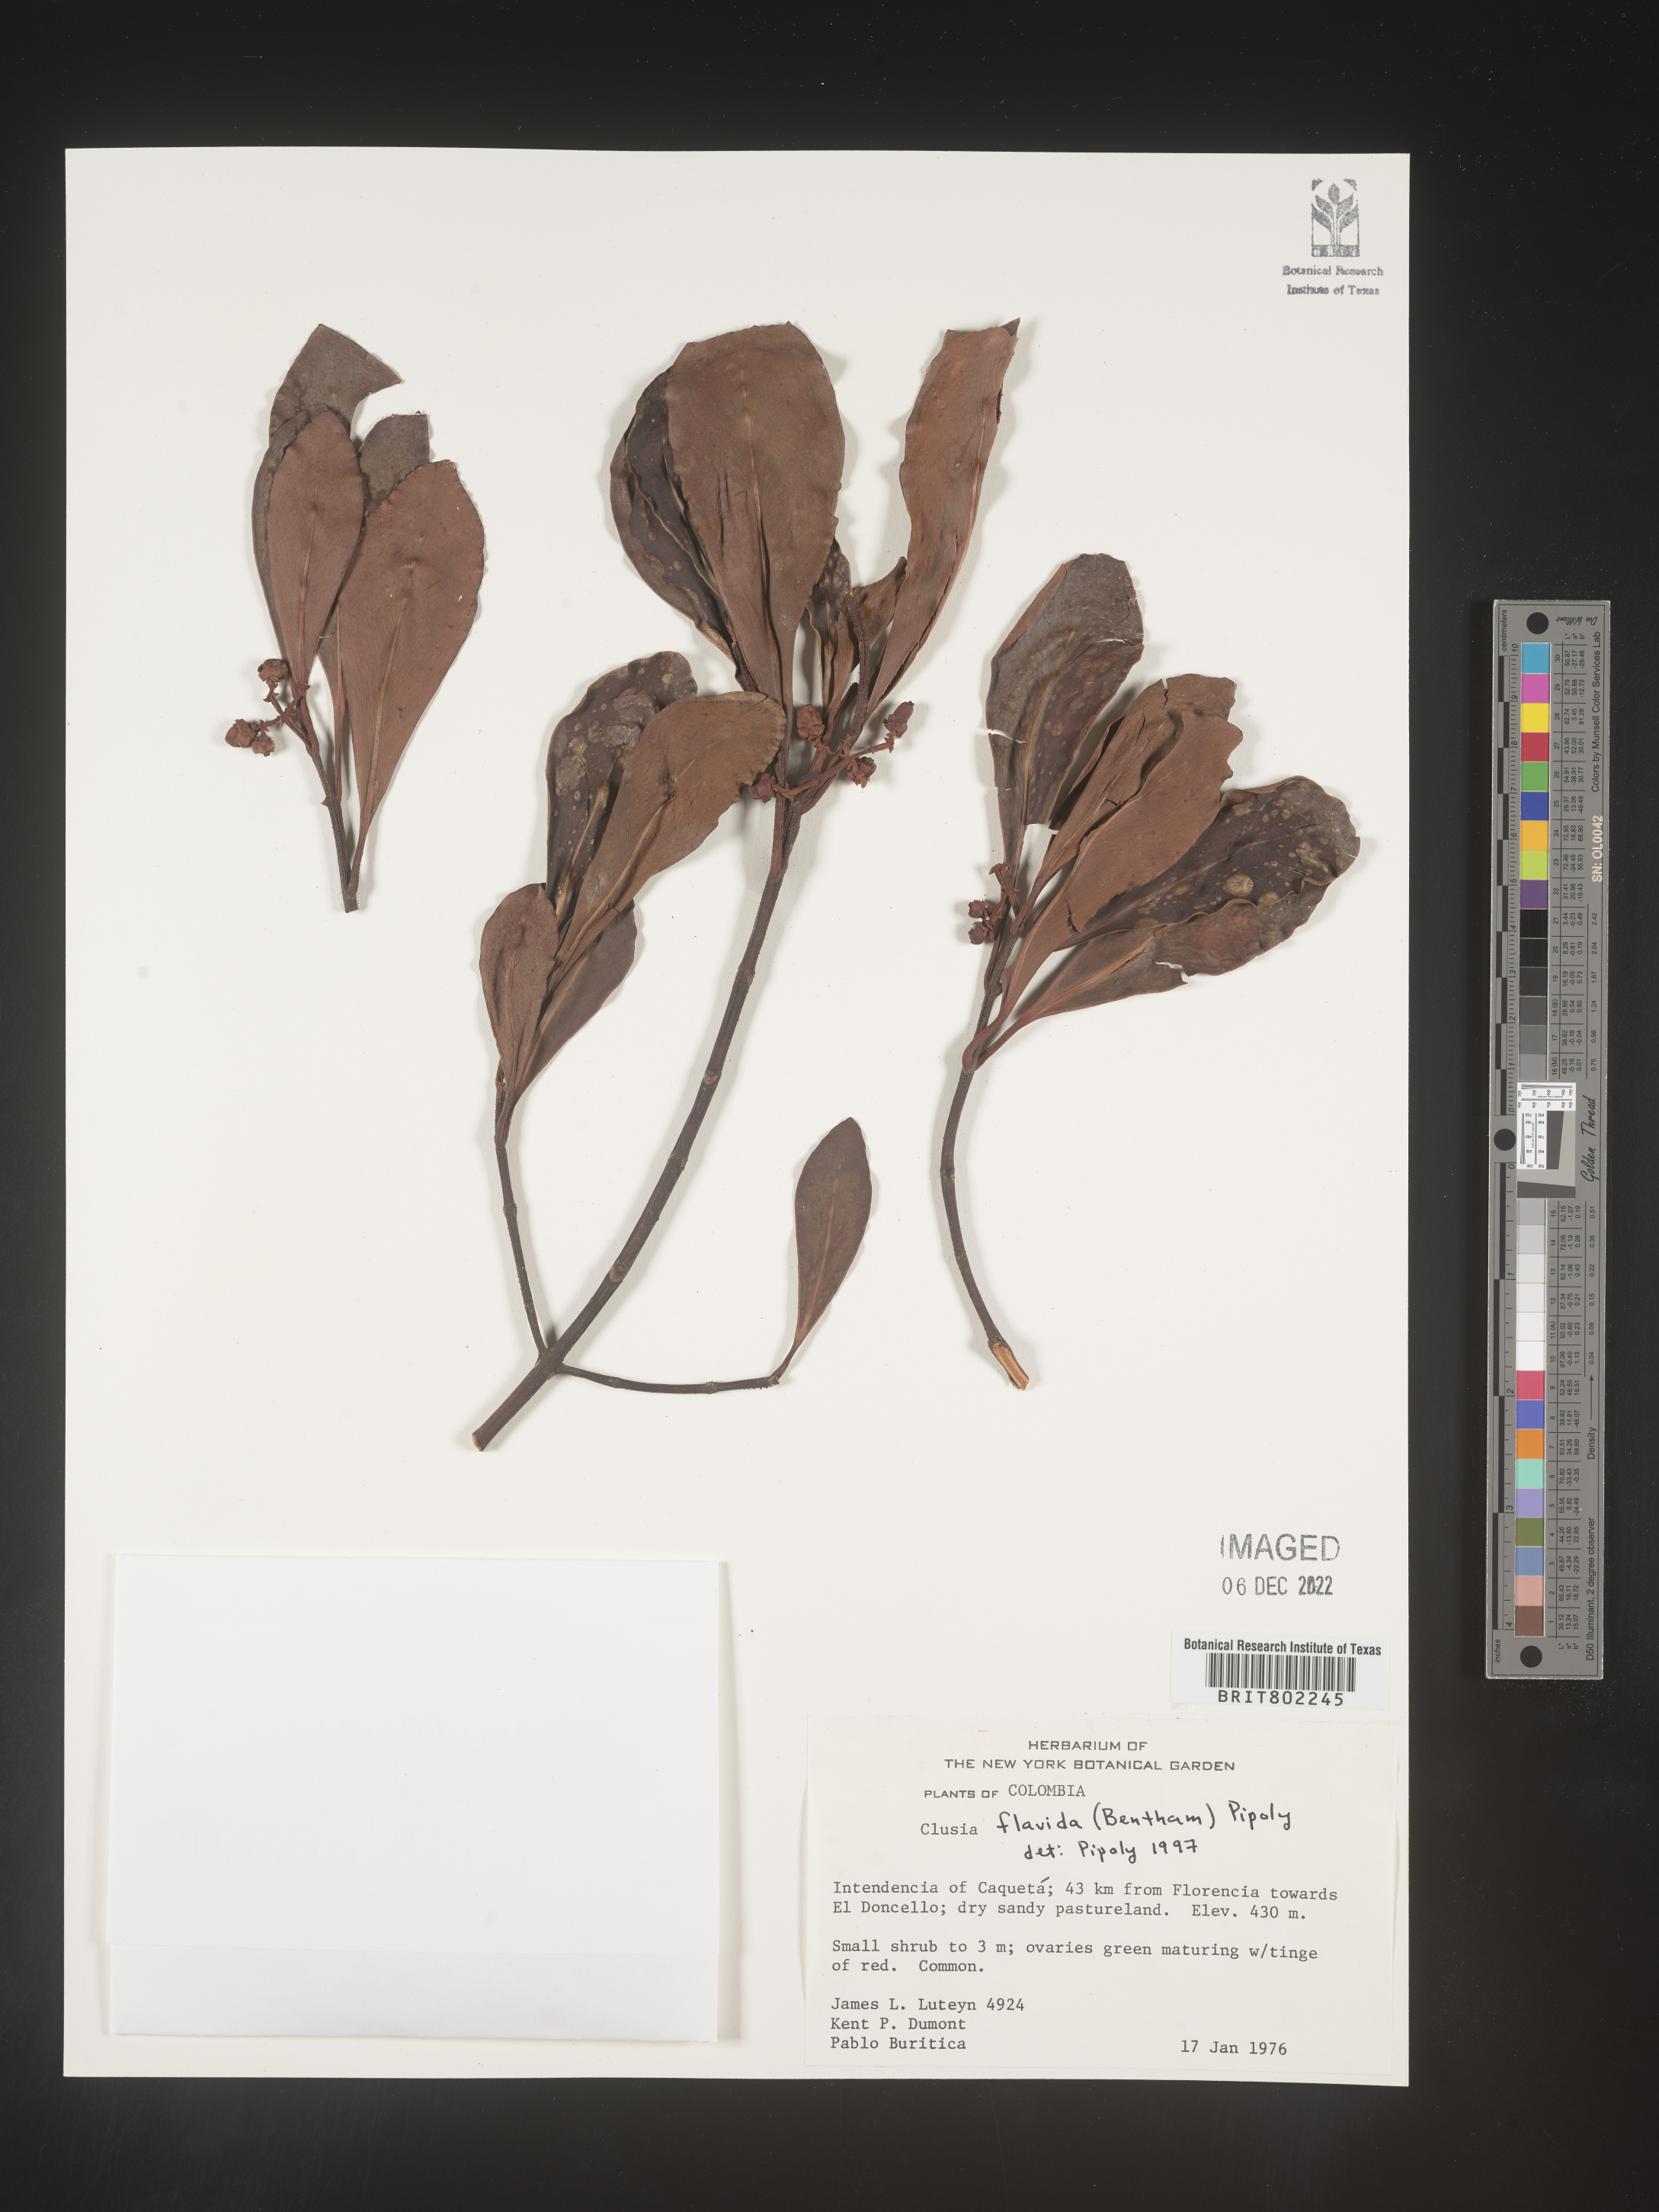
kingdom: Plantae
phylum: Tracheophyta
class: Magnoliopsida
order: Malpighiales
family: Clusiaceae
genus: Clusia
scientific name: Clusia flavida
